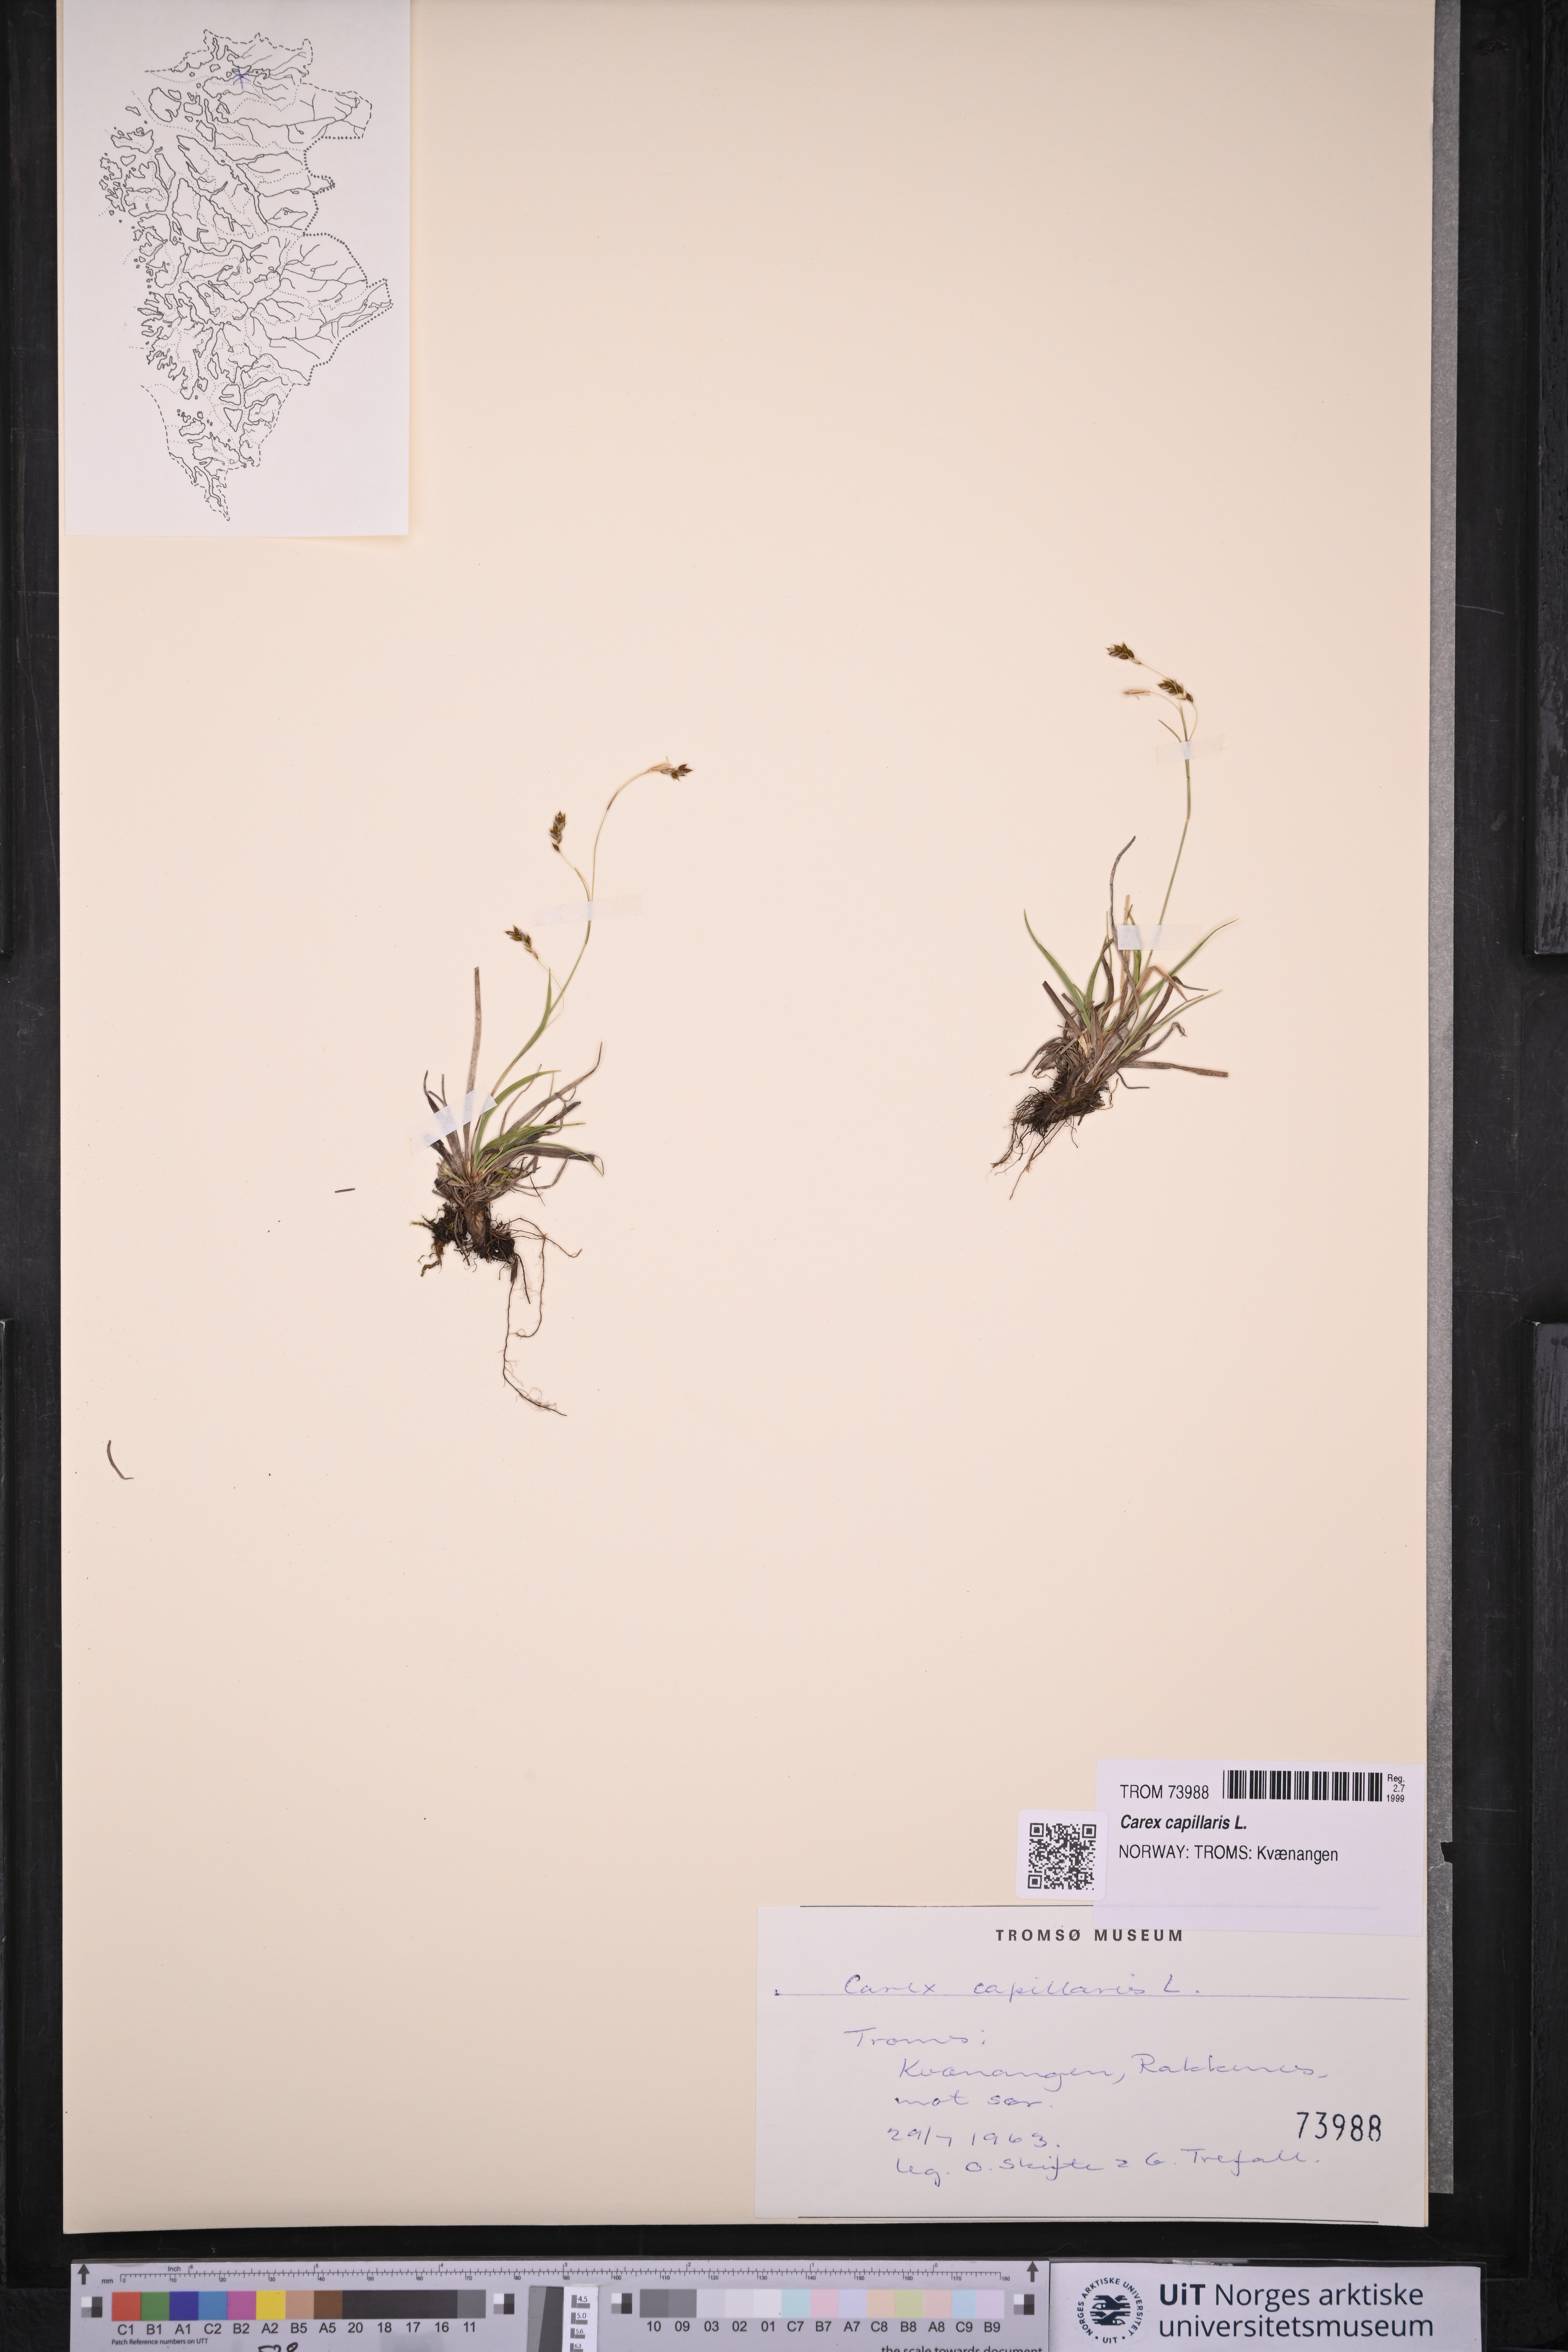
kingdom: Plantae
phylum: Tracheophyta
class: Liliopsida
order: Poales
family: Cyperaceae
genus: Carex
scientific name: Carex capillaris
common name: Hair sedge
